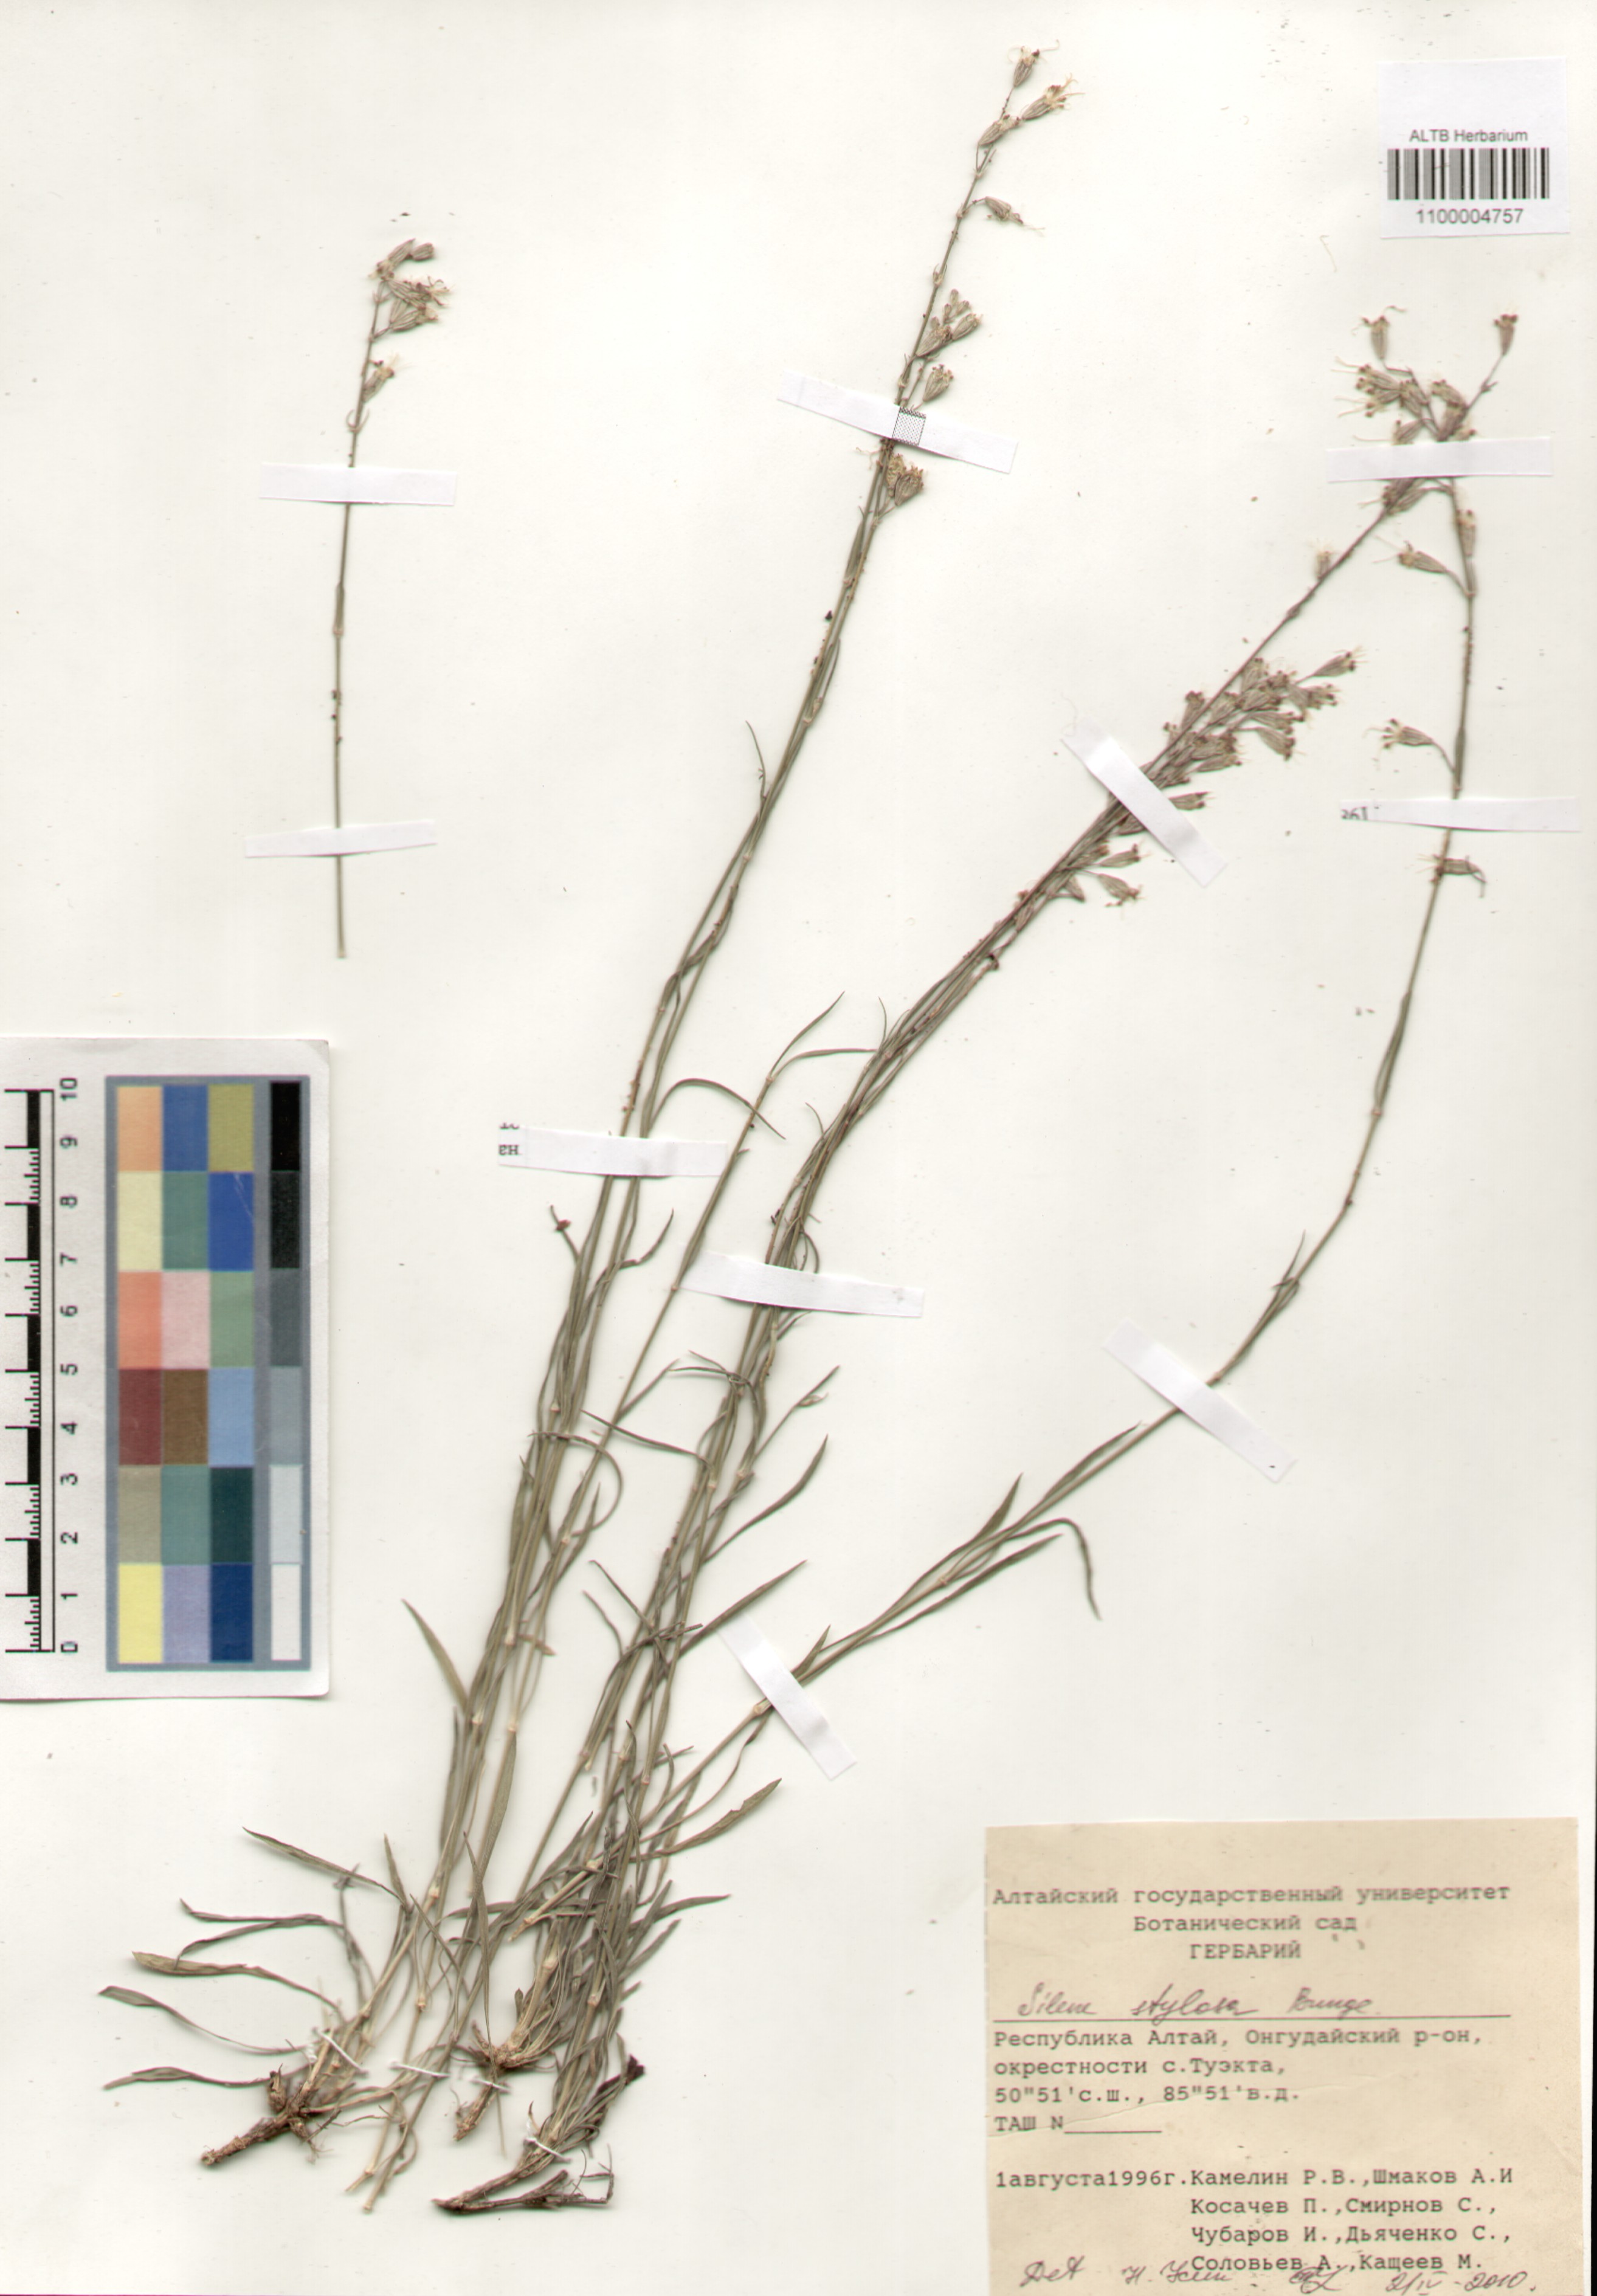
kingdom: Plantae
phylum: Tracheophyta
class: Magnoliopsida
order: Caryophyllales
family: Caryophyllaceae
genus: Silene
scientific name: Silene graminifolia
